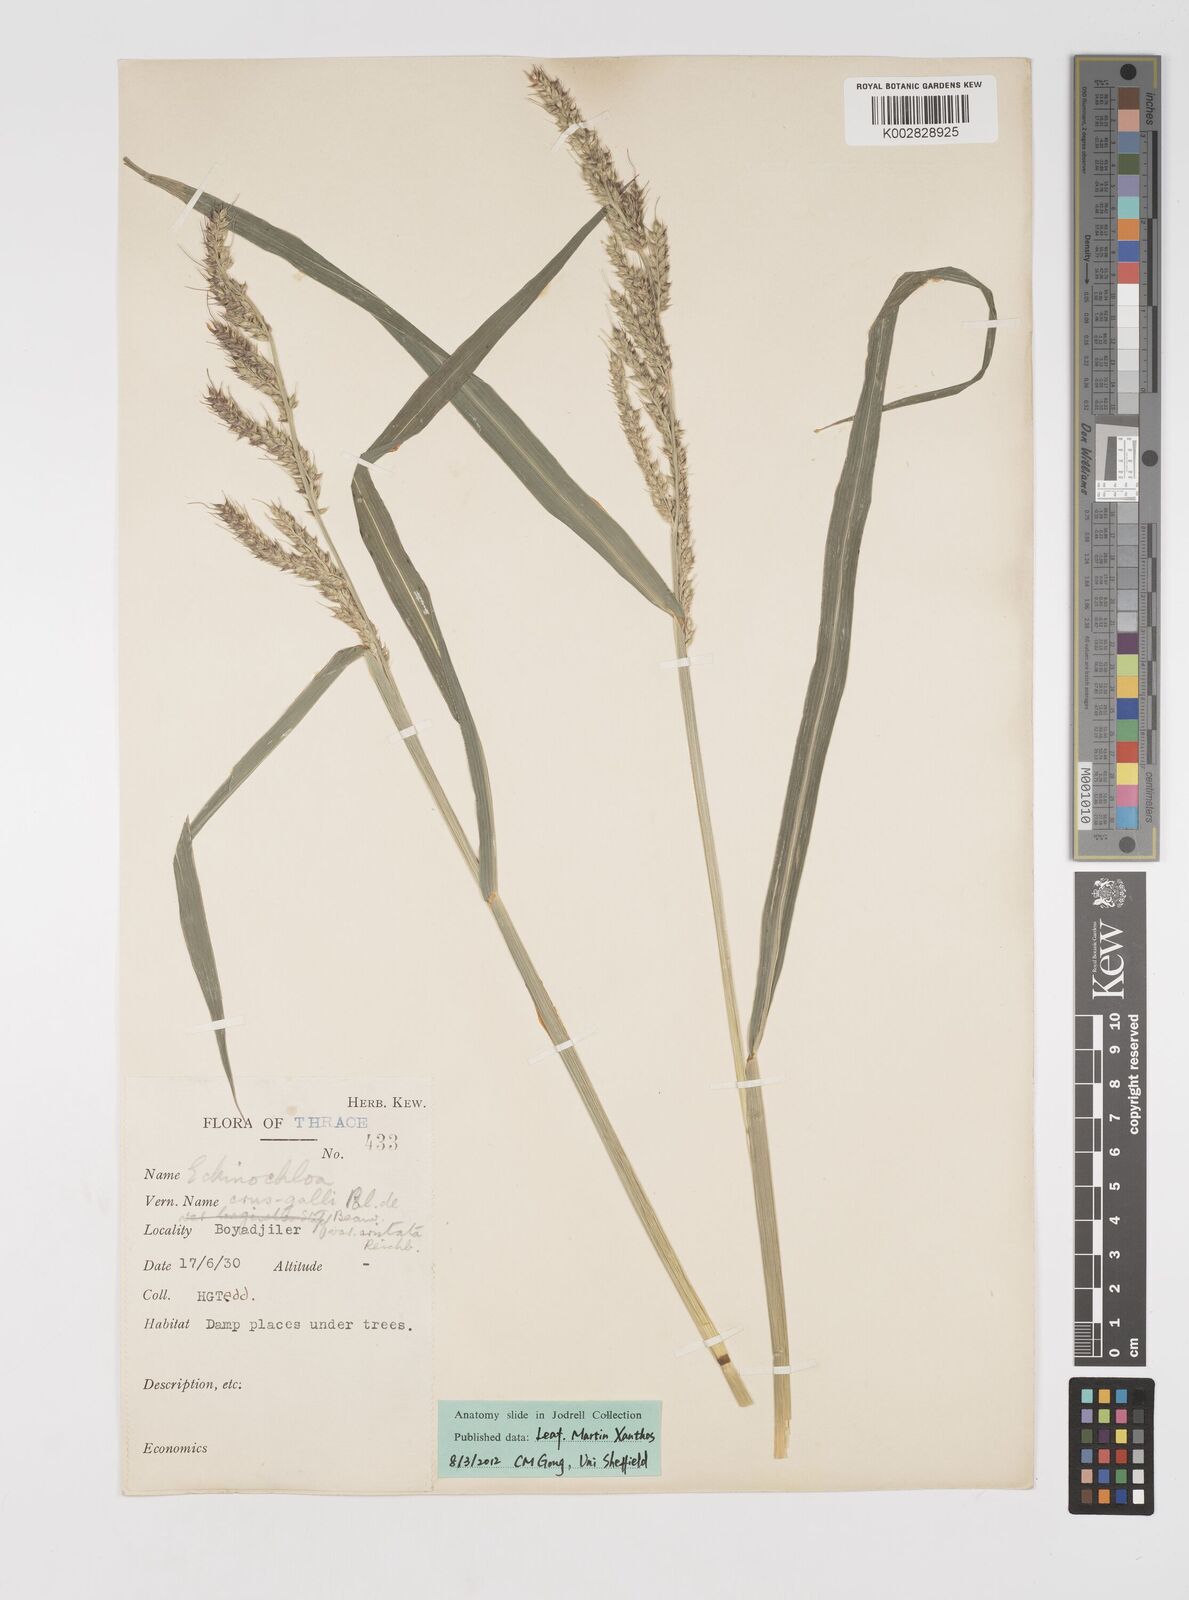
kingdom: Plantae
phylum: Tracheophyta
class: Liliopsida
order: Poales
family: Poaceae
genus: Echinochloa
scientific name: Echinochloa crus-galli
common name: Cockspur
